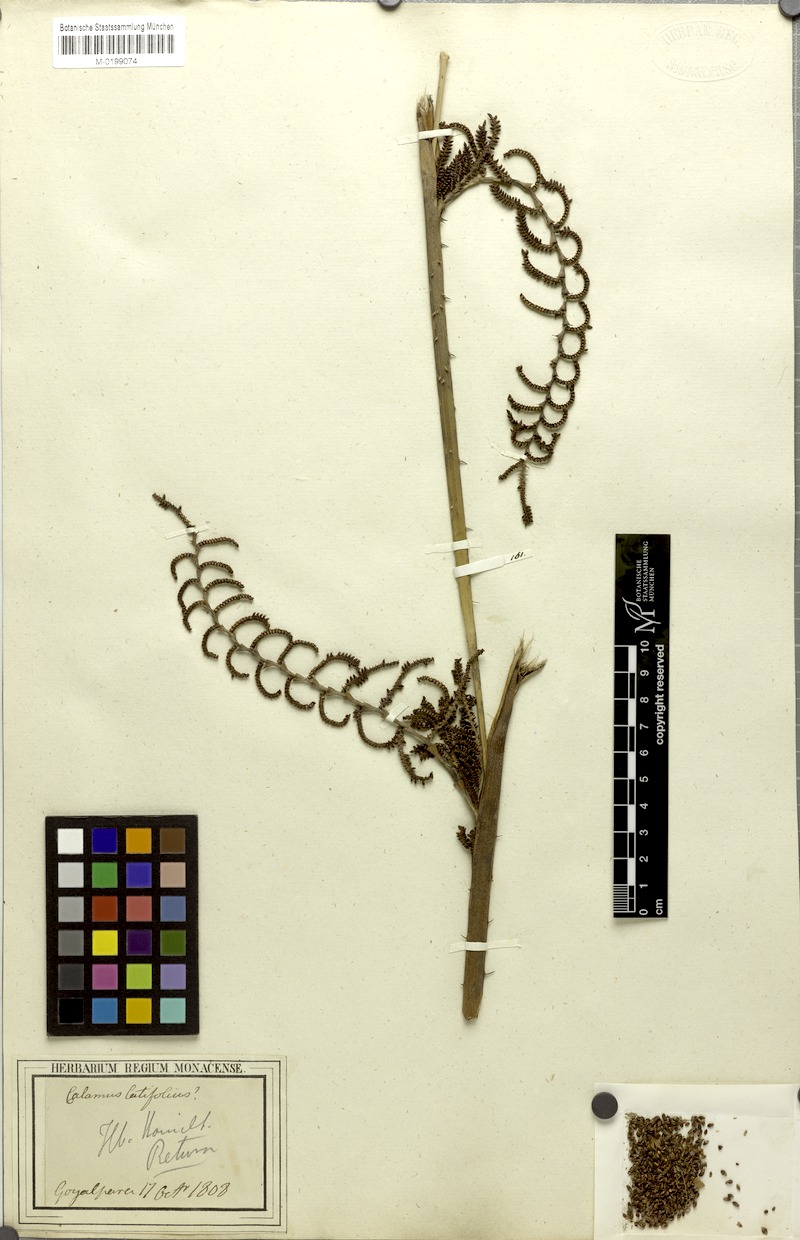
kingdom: Plantae
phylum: Tracheophyta
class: Liliopsida
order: Arecales
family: Arecaceae
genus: Calamus
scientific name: Calamus floribundus
